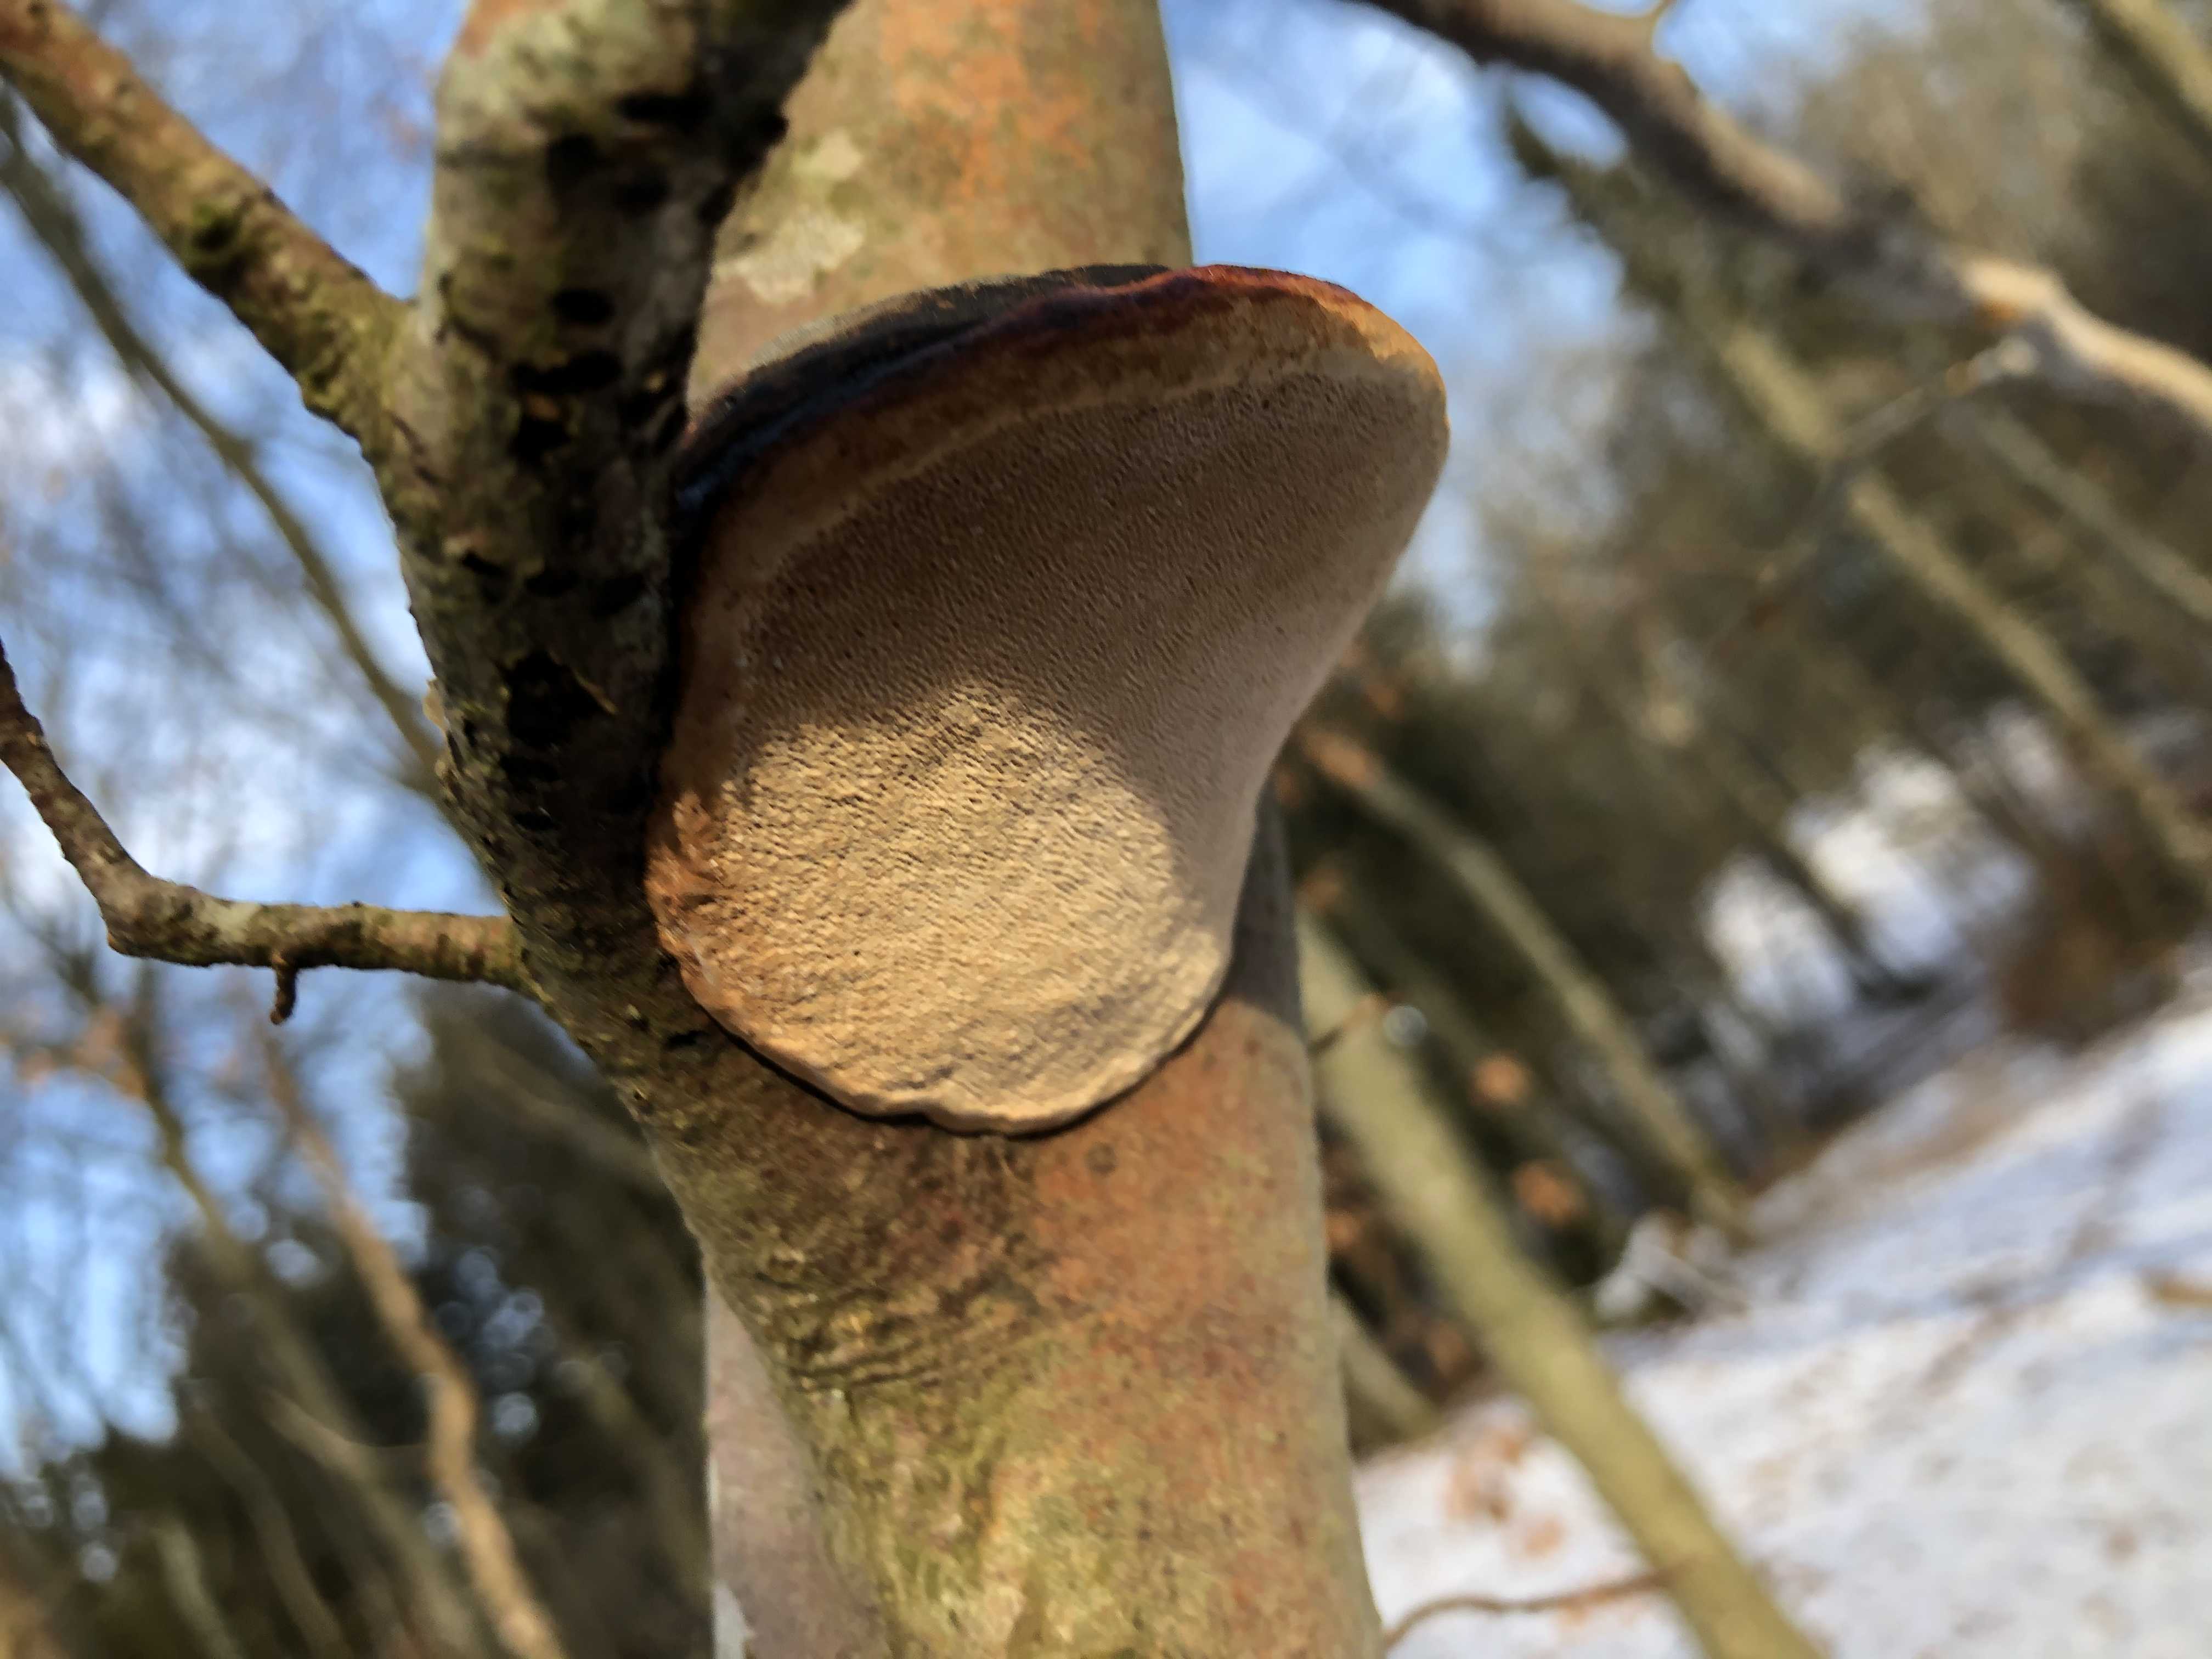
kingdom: Fungi
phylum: Basidiomycota
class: Agaricomycetes
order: Polyporales
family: Fomitopsidaceae
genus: Fomitopsis
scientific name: Fomitopsis pinicola
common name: randbæltet hovporesvamp
